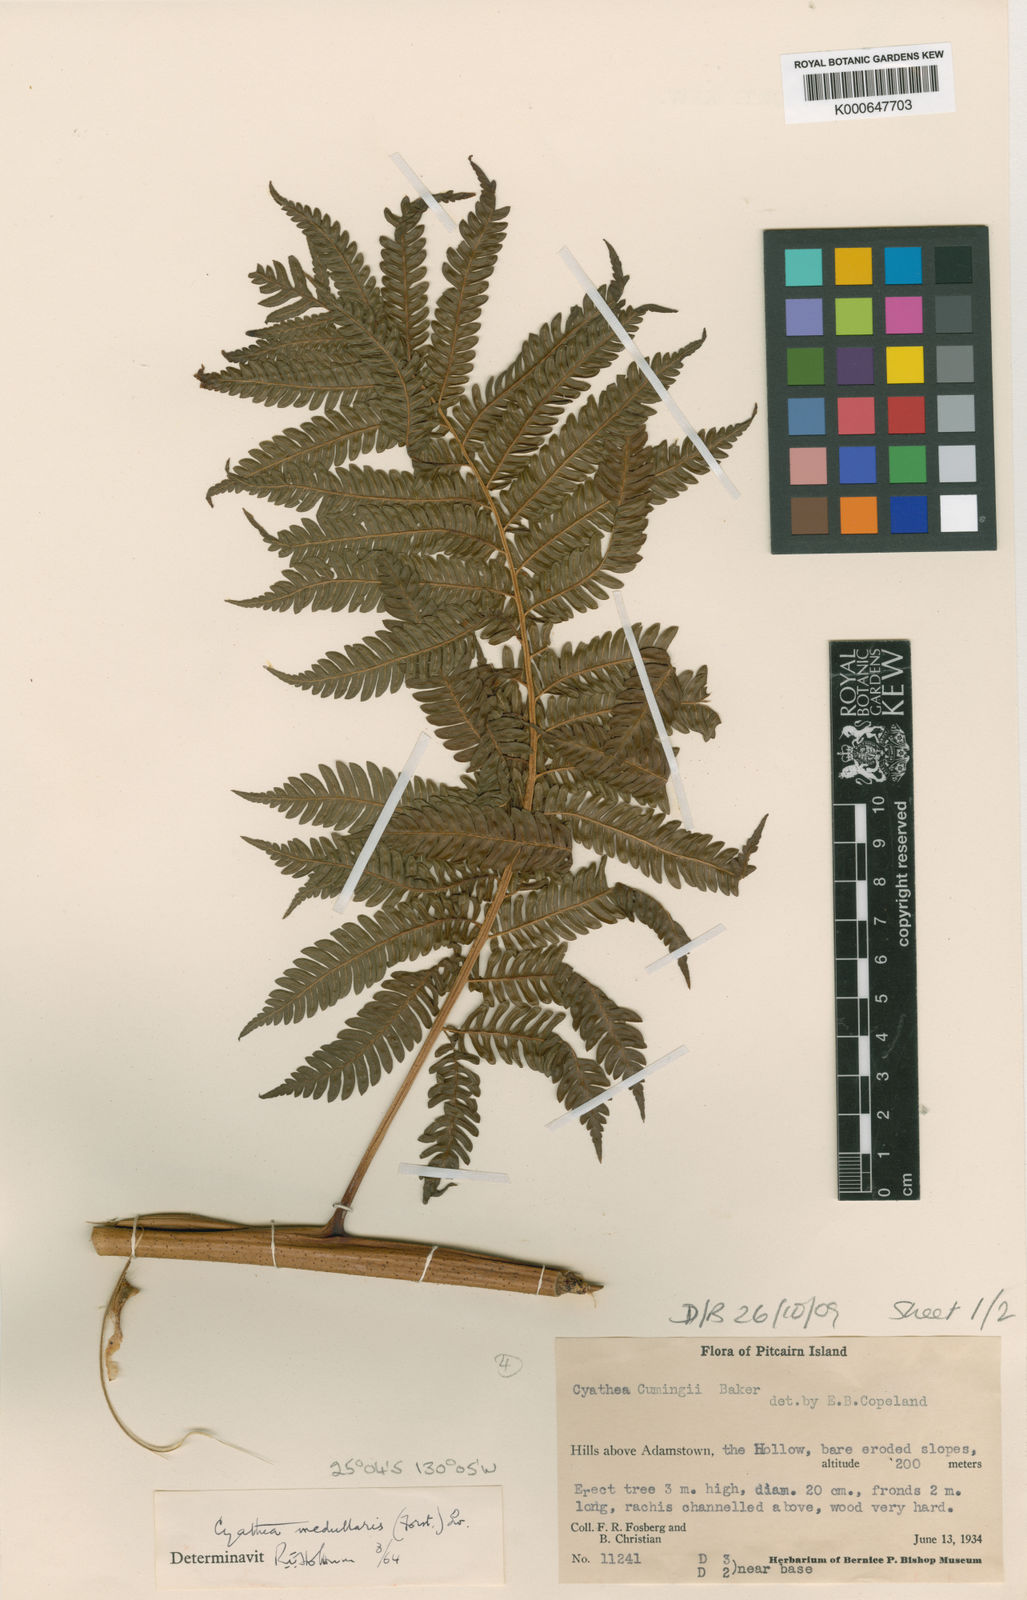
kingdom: Plantae
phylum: Tracheophyta
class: Polypodiopsida
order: Cyatheales
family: Cyatheaceae
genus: Sphaeropteris
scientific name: Sphaeropteris medullaris
